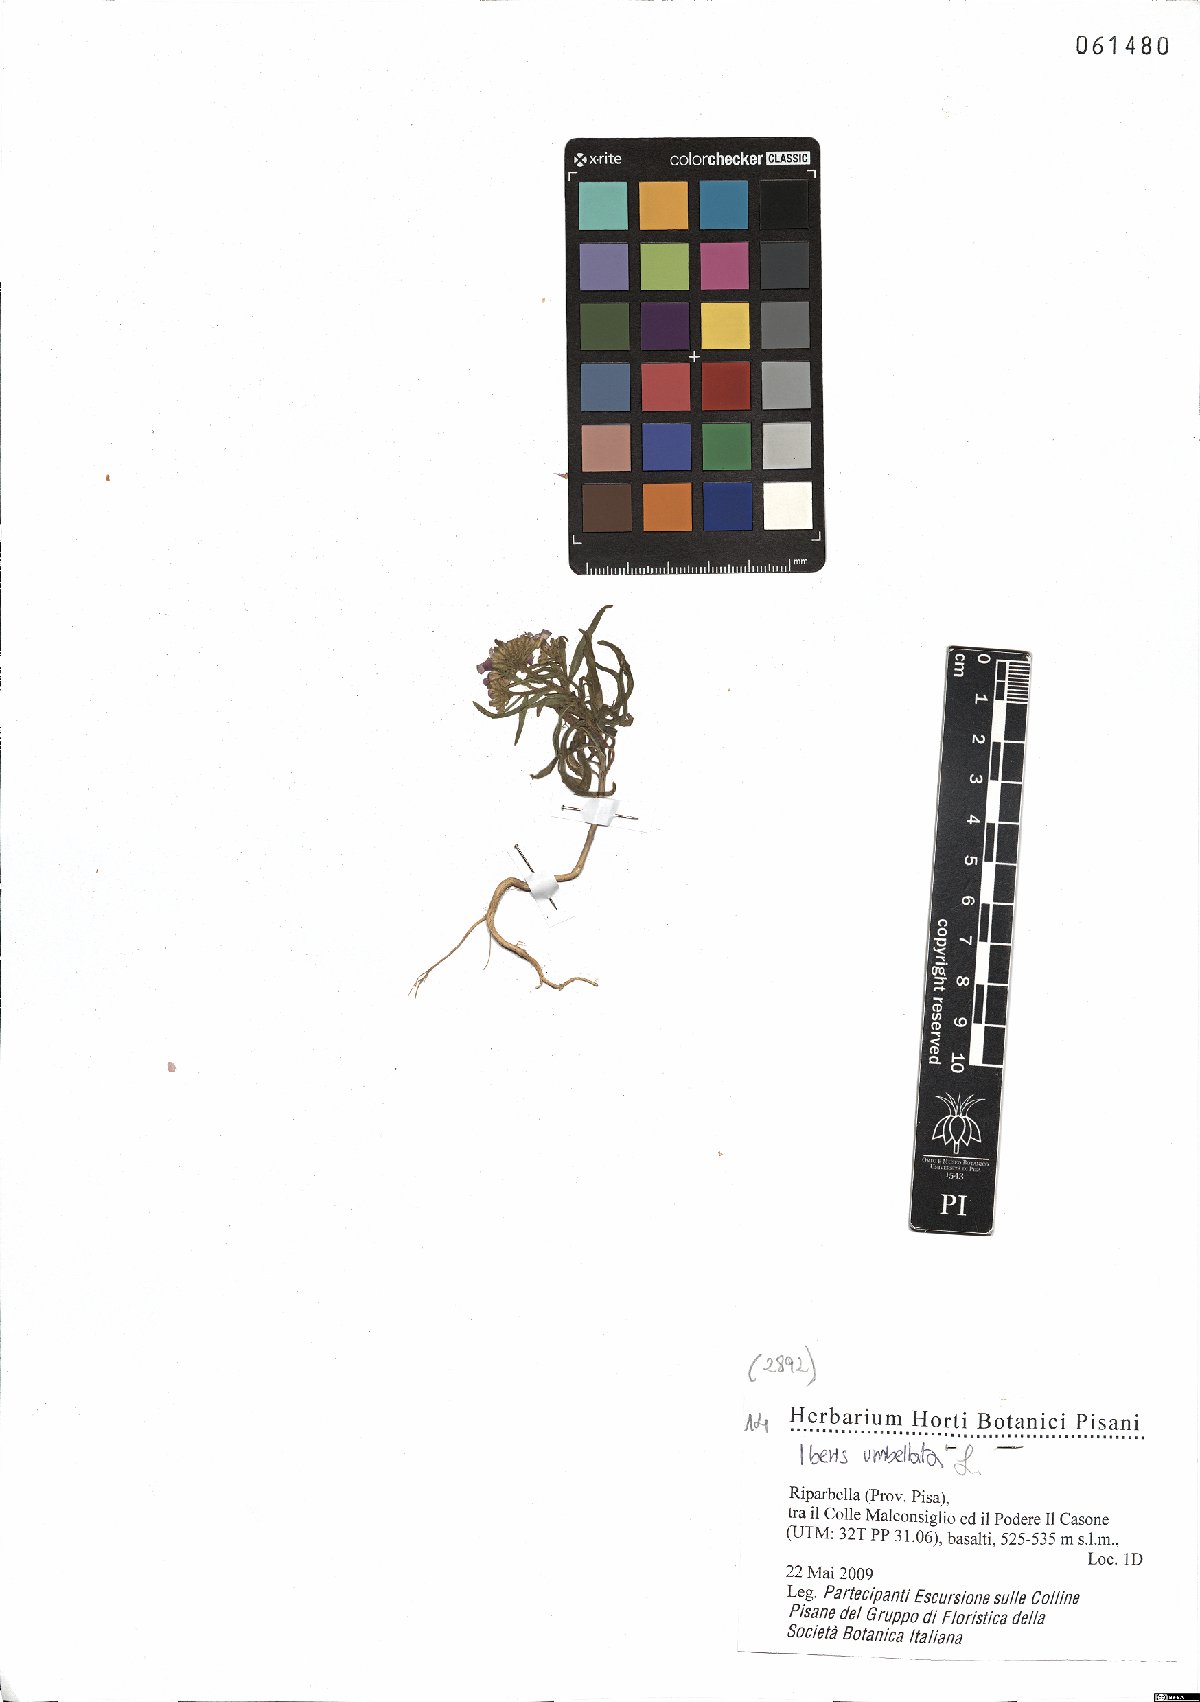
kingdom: Plantae
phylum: Tracheophyta
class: Magnoliopsida
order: Brassicales
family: Brassicaceae
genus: Iberis
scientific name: Iberis umbellata
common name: Globe candytuft
